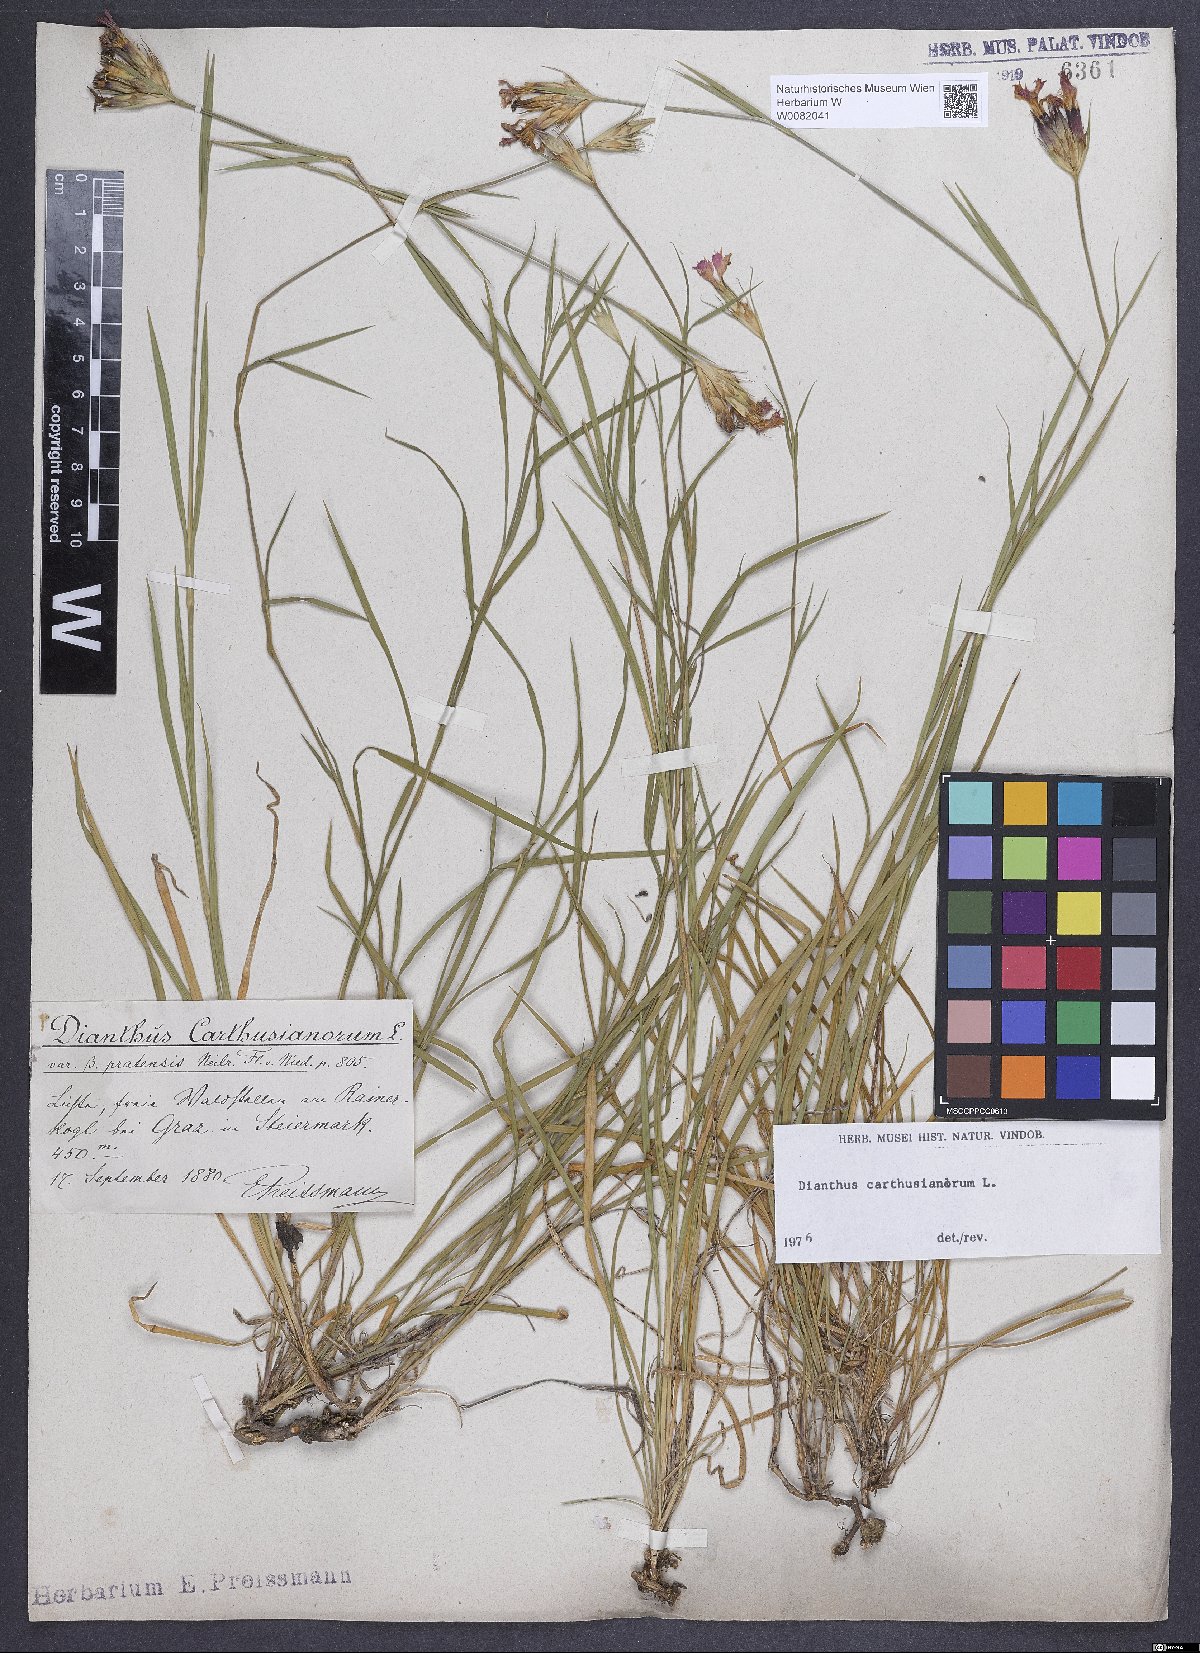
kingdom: Plantae
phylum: Tracheophyta
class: Magnoliopsida
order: Caryophyllales
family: Caryophyllaceae
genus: Dianthus
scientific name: Dianthus carthusianorum
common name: Carthusian pink
